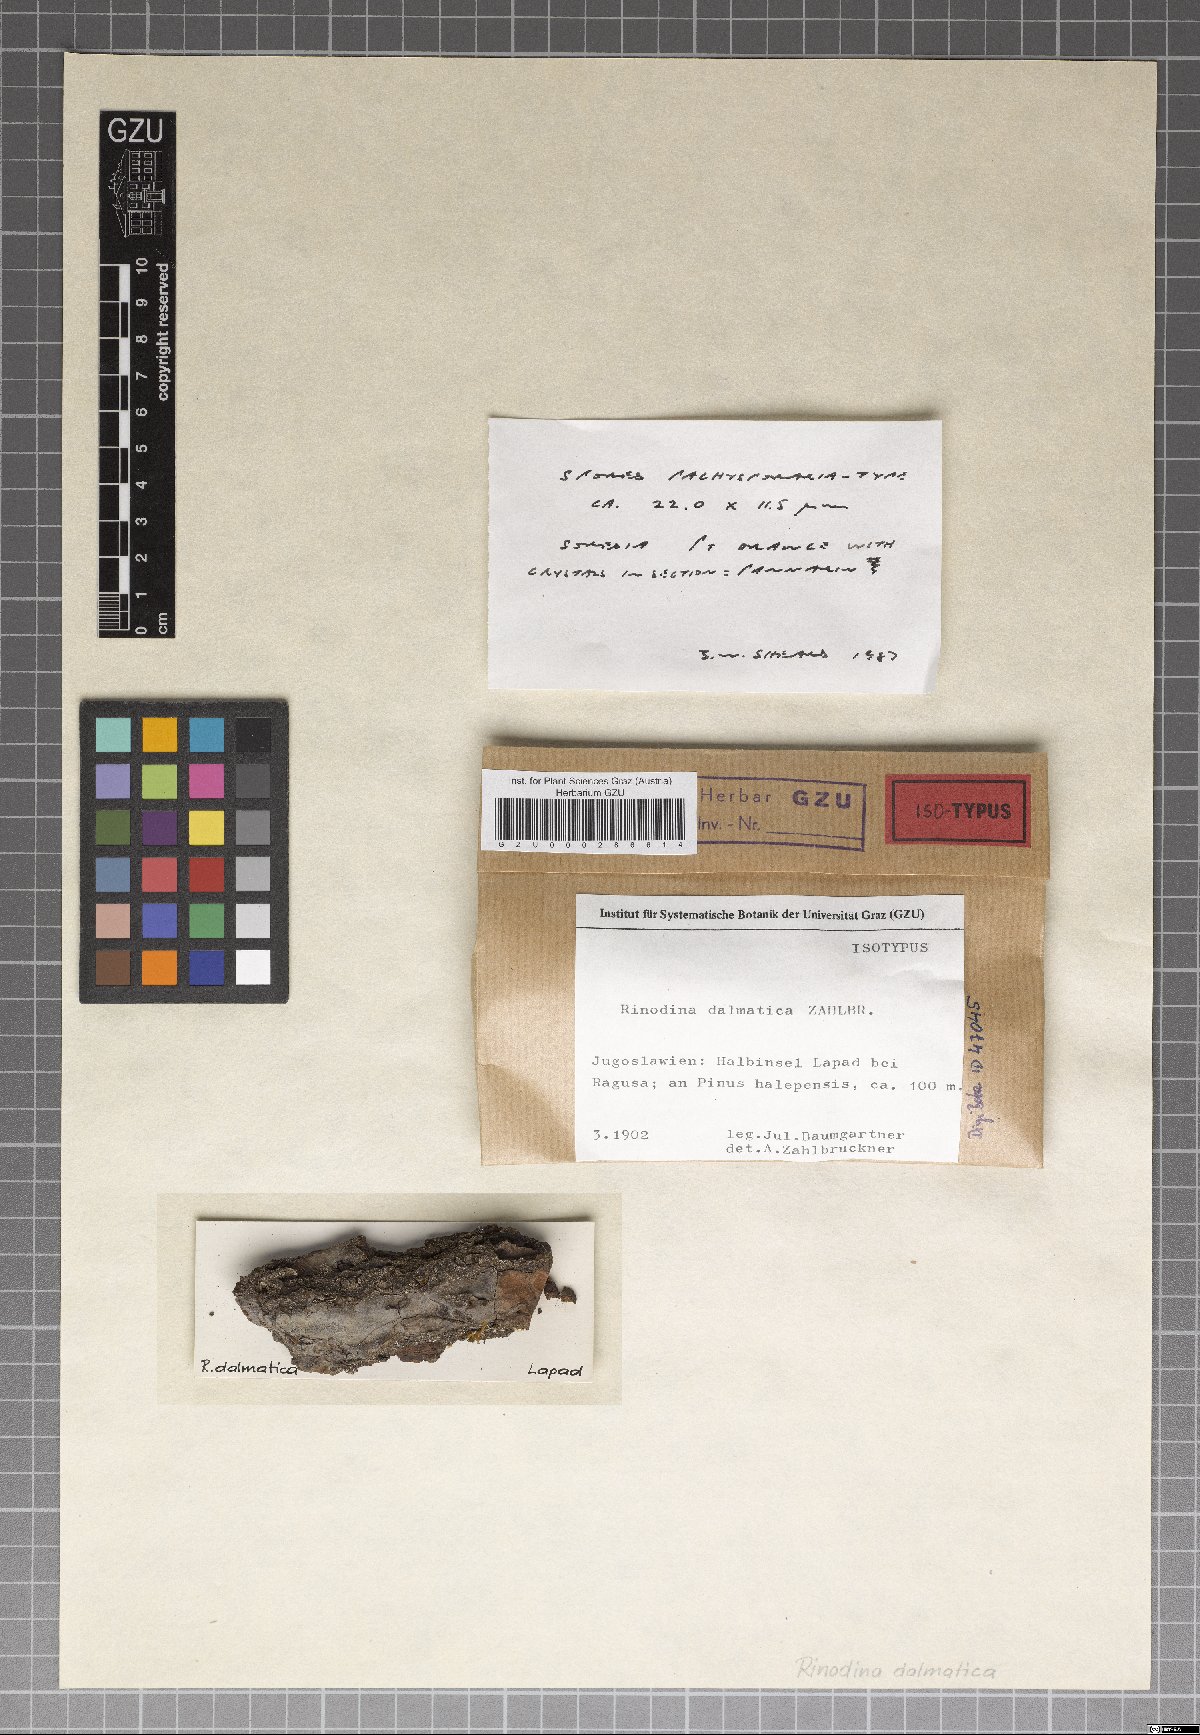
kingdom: Fungi
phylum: Ascomycota
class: Lecanoromycetes
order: Caliciales
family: Physciaceae
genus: Rinodina
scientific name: Rinodina dalmatica
